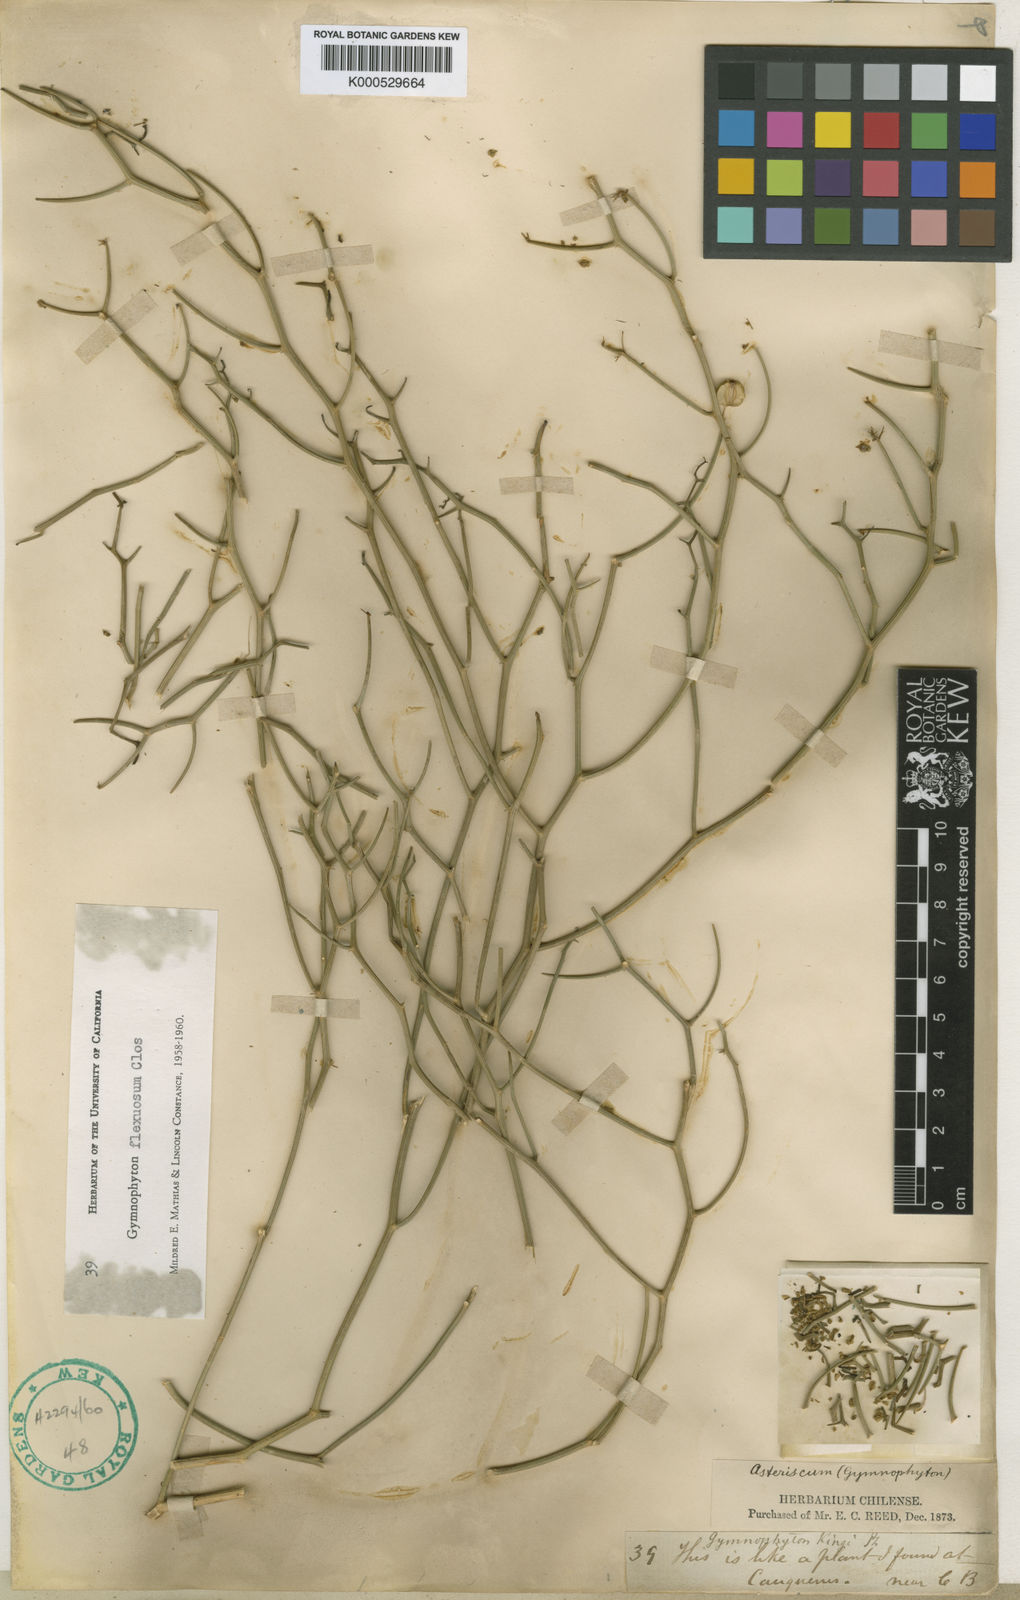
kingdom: Plantae
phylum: Tracheophyta
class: Magnoliopsida
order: Apiales
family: Apiaceae
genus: Gymnophyton
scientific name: Gymnophyton flexuosum
